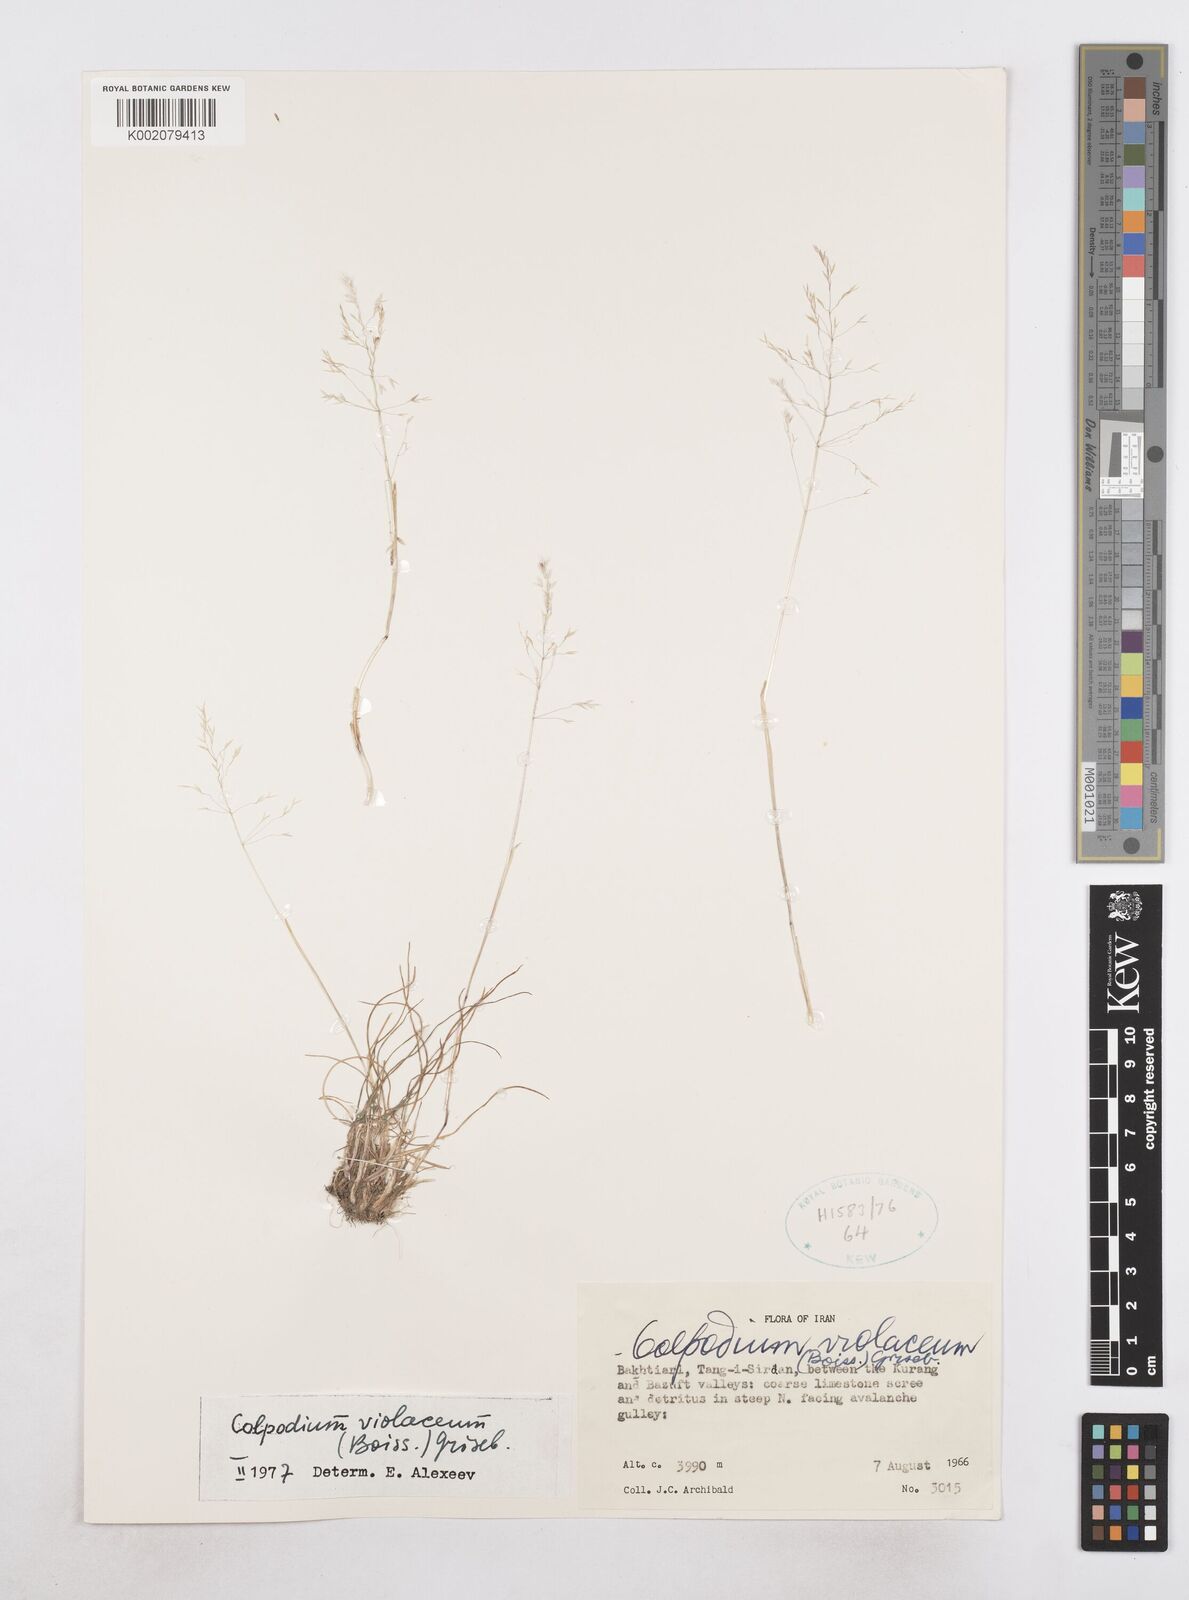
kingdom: Plantae
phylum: Tracheophyta
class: Liliopsida
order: Poales
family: Poaceae
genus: Catabrosella
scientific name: Catabrosella violacea
